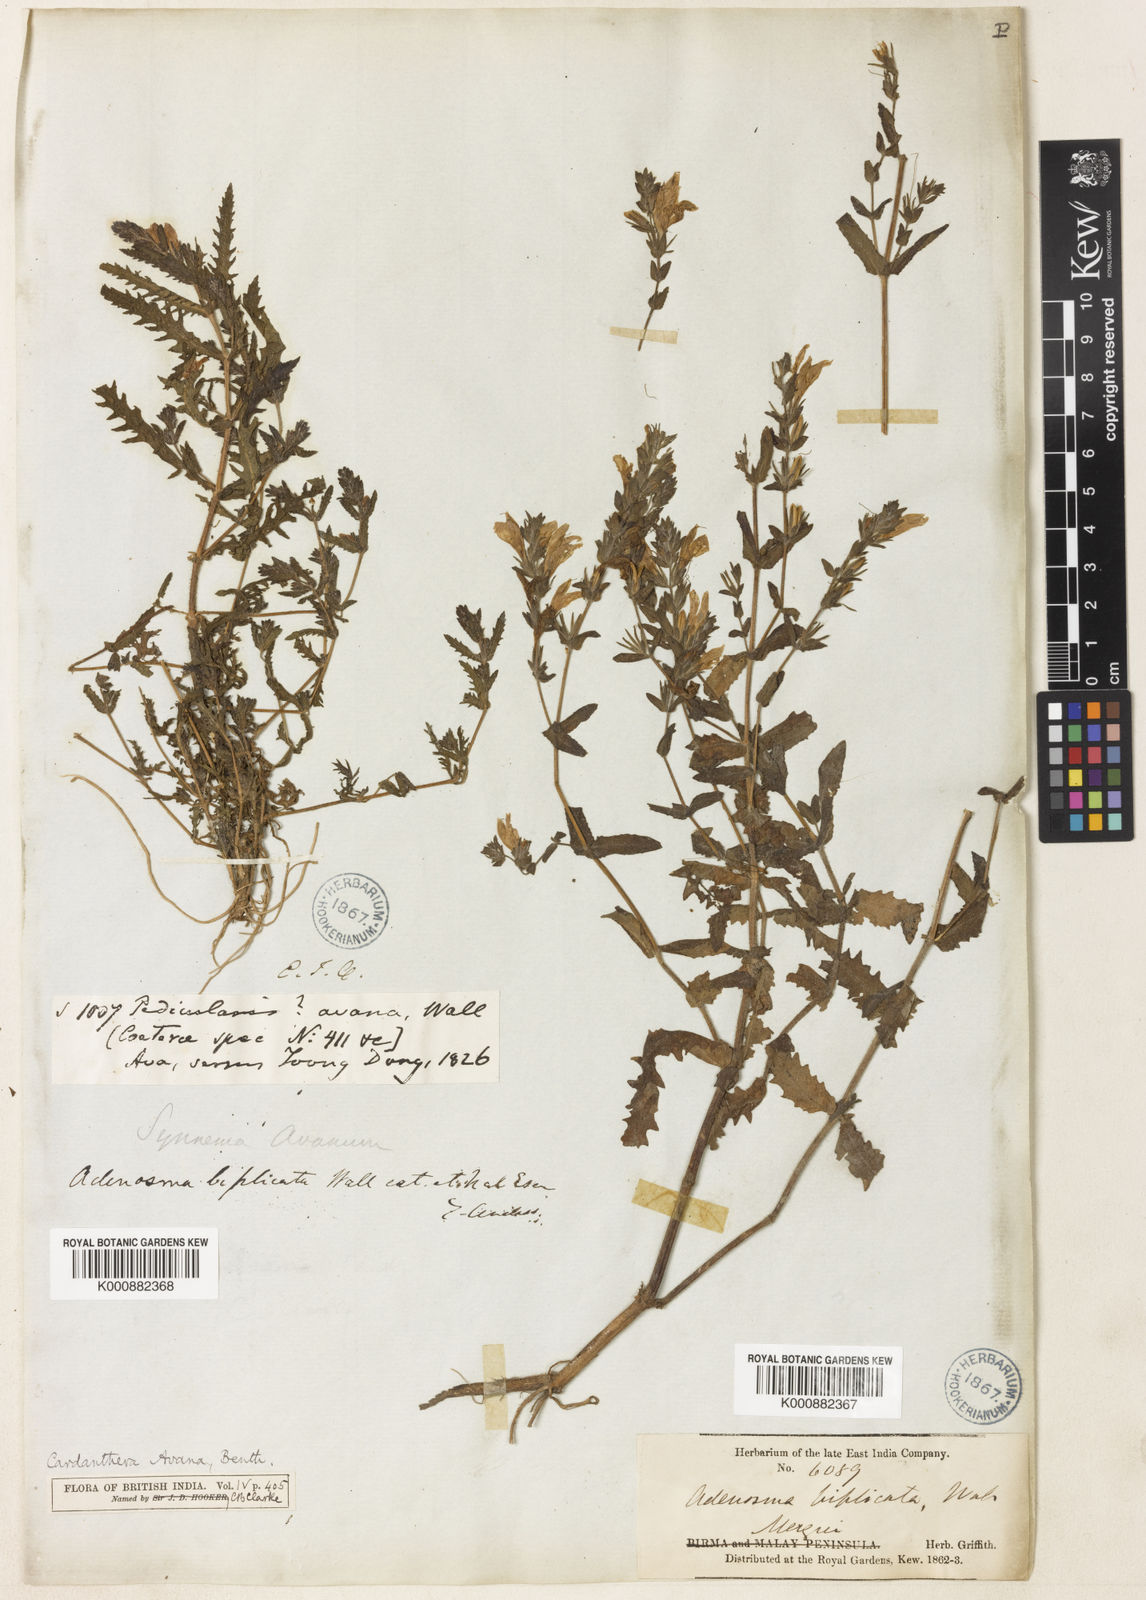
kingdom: Plantae
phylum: Tracheophyta
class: Magnoliopsida
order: Lamiales
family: Acanthaceae
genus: Hygrophila
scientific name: Hygrophila biplicata
